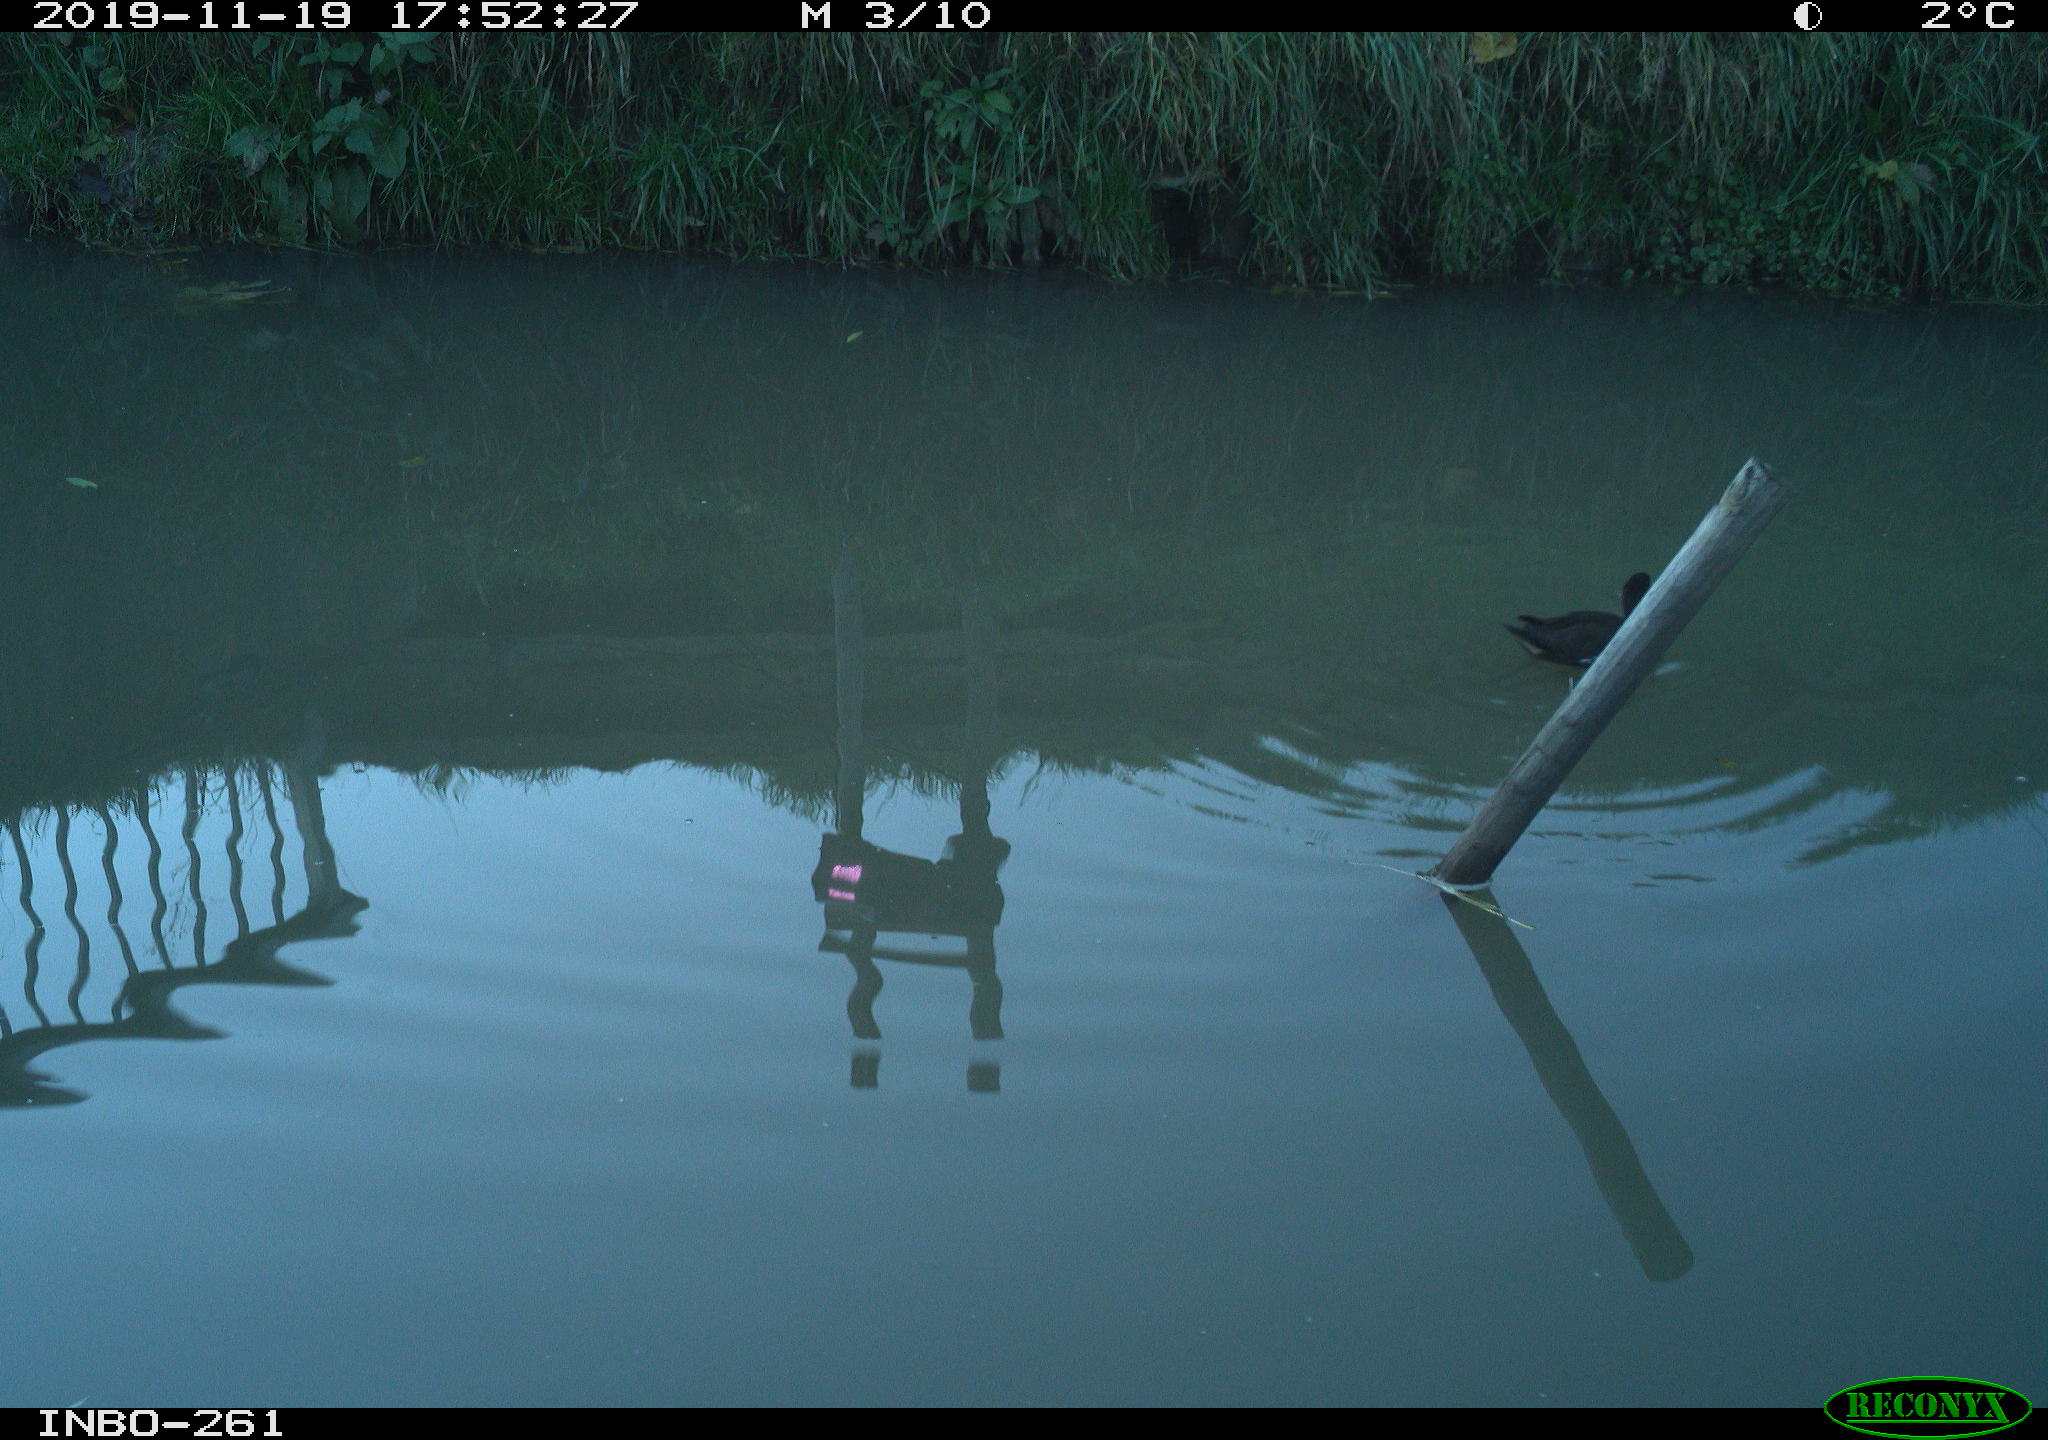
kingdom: Animalia
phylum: Chordata
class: Aves
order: Gruiformes
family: Rallidae
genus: Gallinula
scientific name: Gallinula chloropus
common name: Common moorhen
